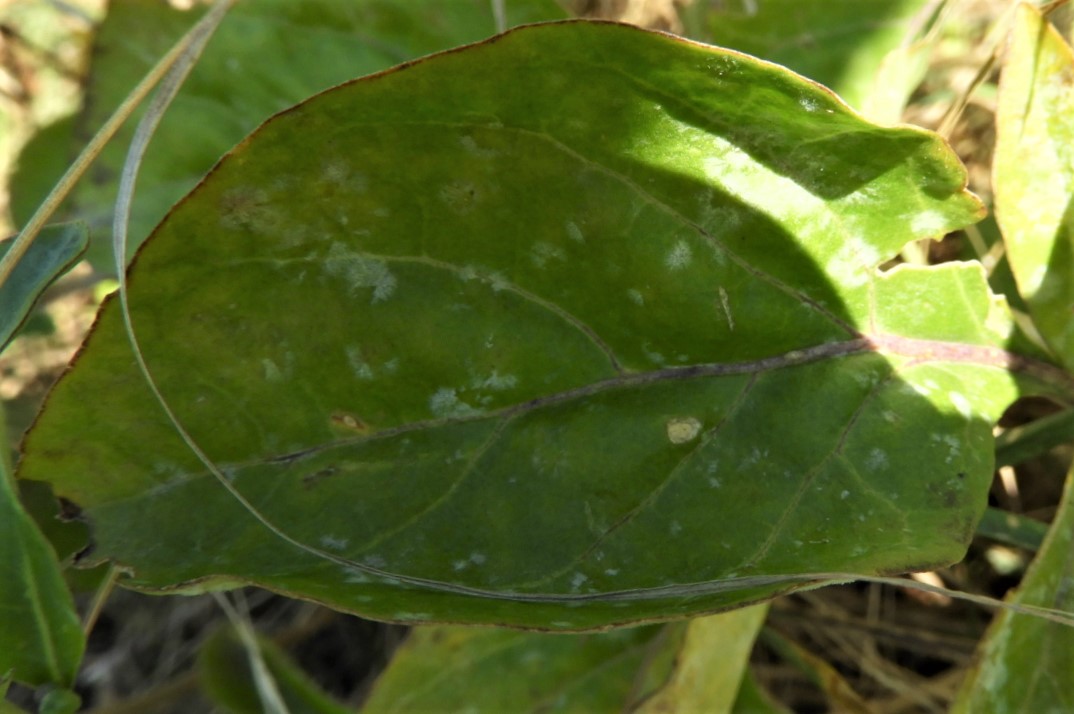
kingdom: Fungi
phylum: Ascomycota
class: Leotiomycetes
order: Helotiales
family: Erysiphaceae
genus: Erysiphe
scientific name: Erysiphe mougeotii
